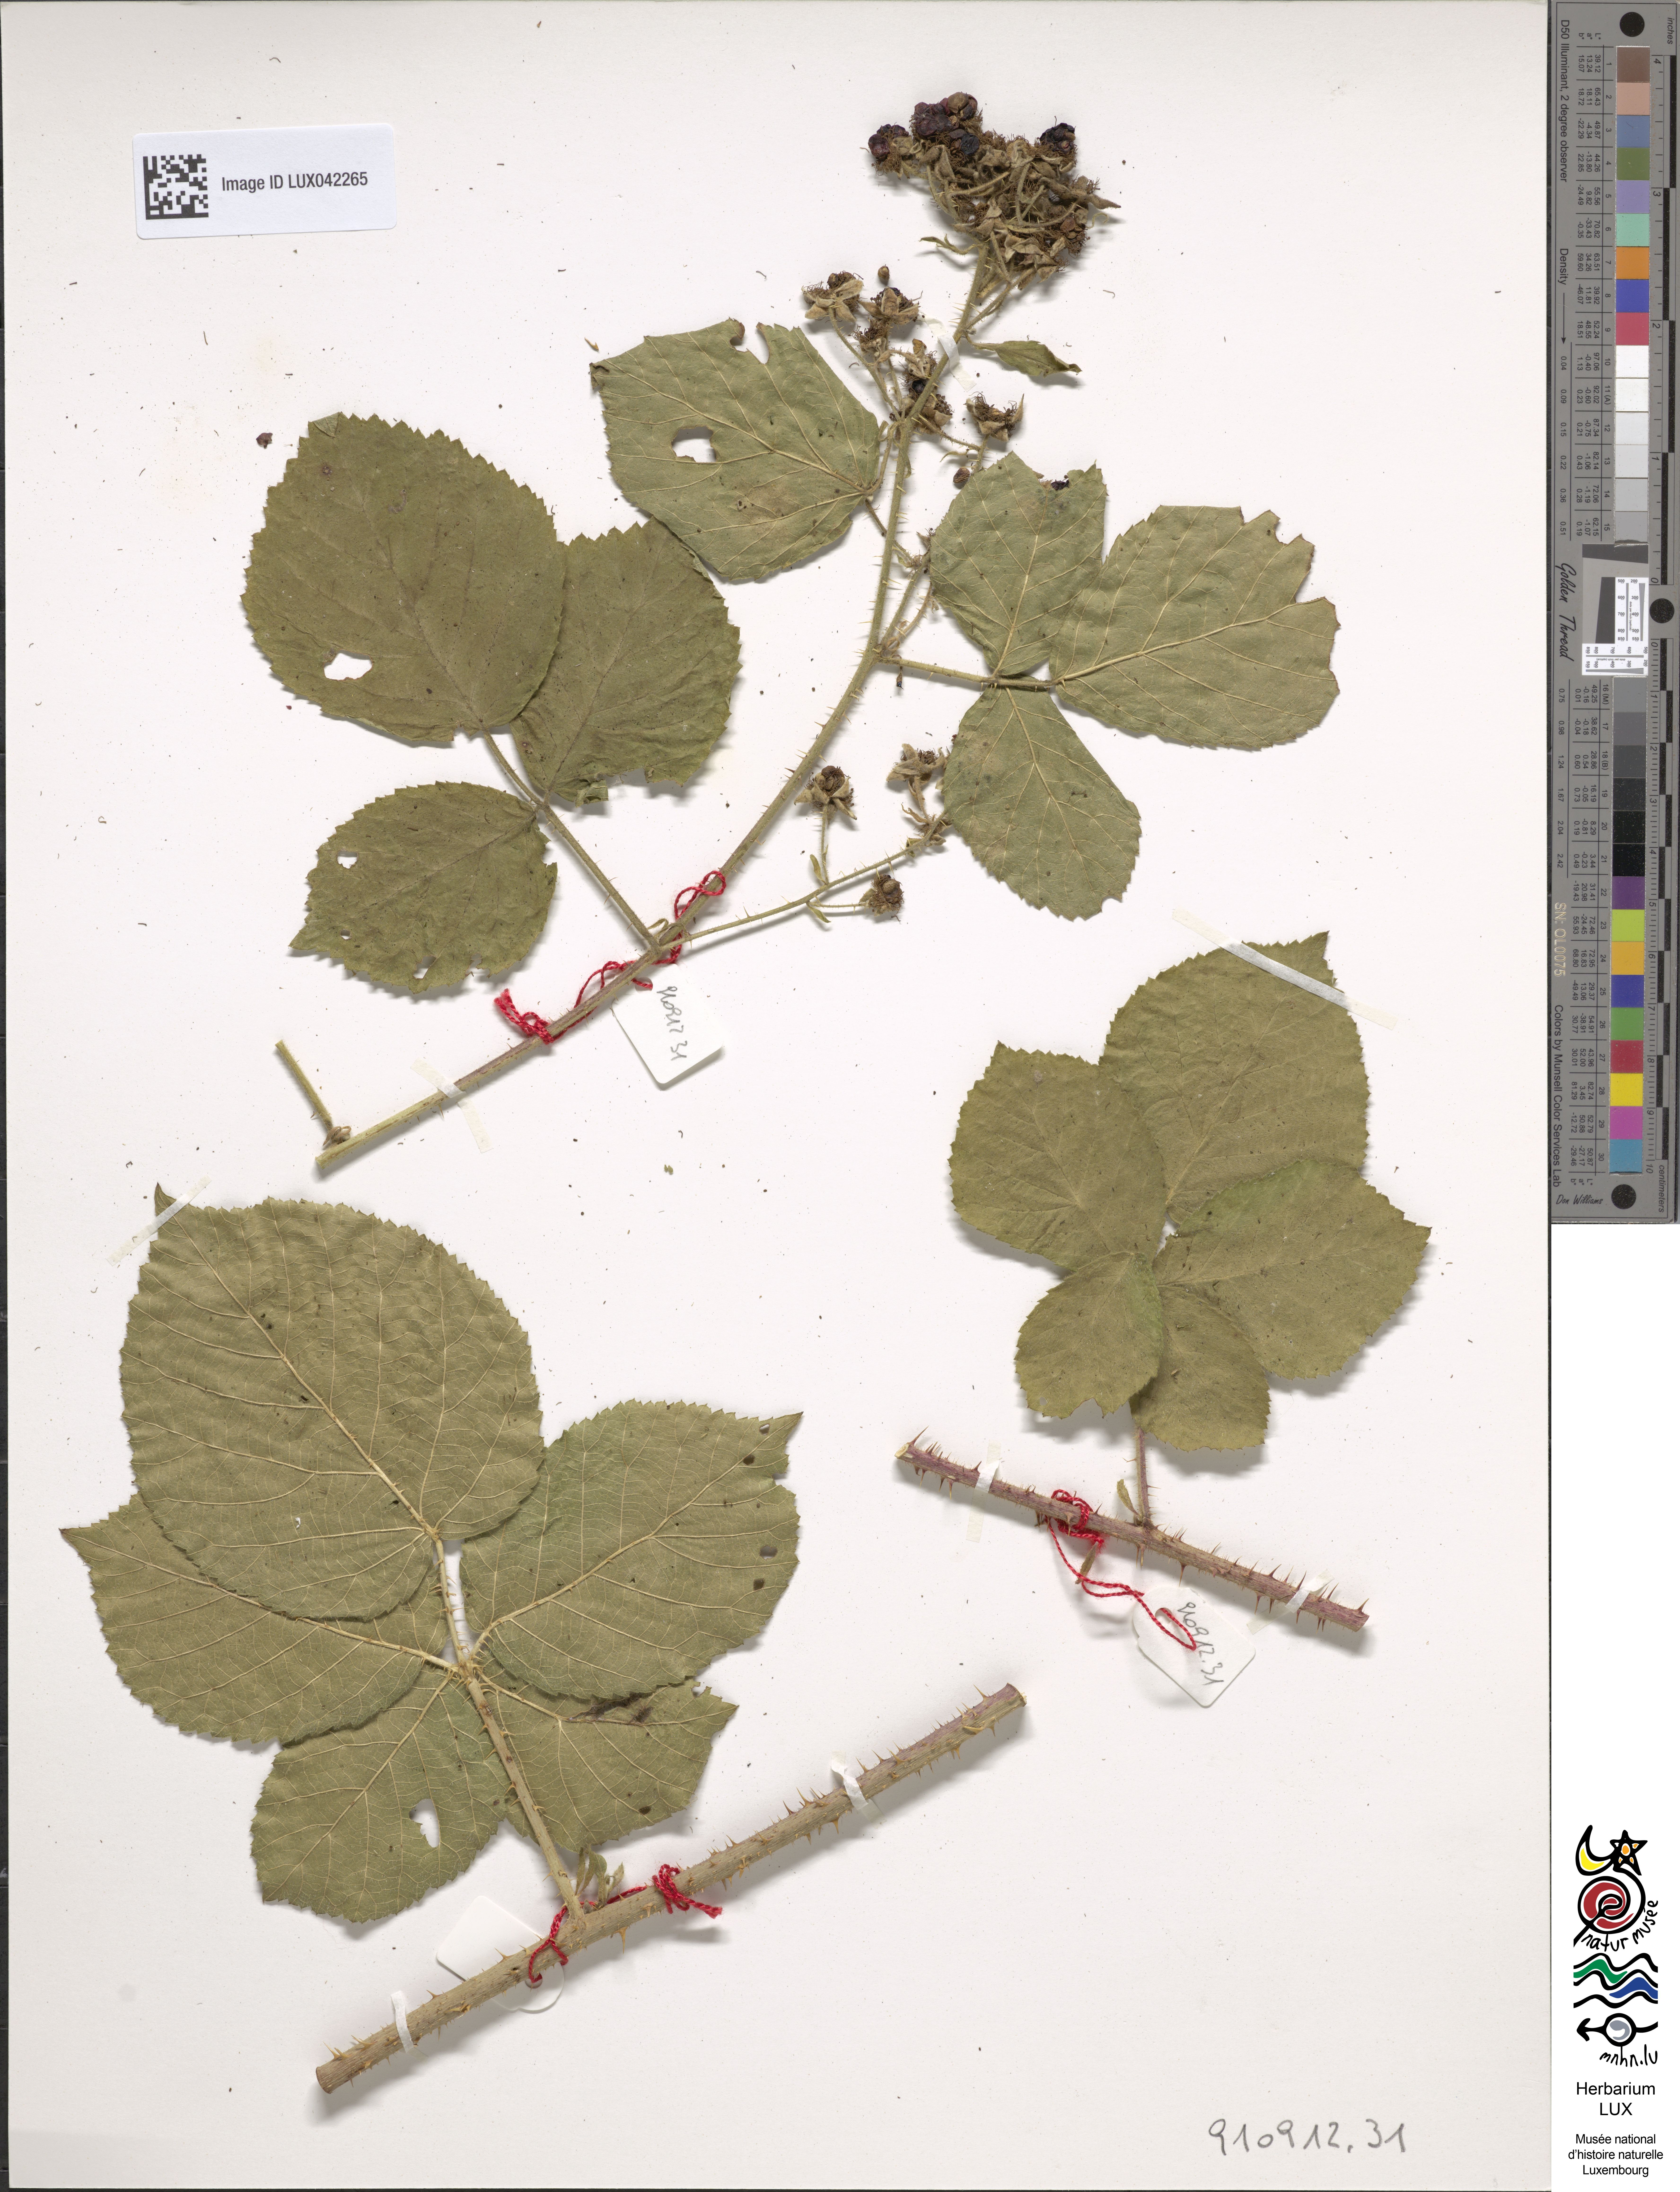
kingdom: Plantae
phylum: Tracheophyta
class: Magnoliopsida
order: Rosales
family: Rosaceae
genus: Rubus
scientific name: Rubus
